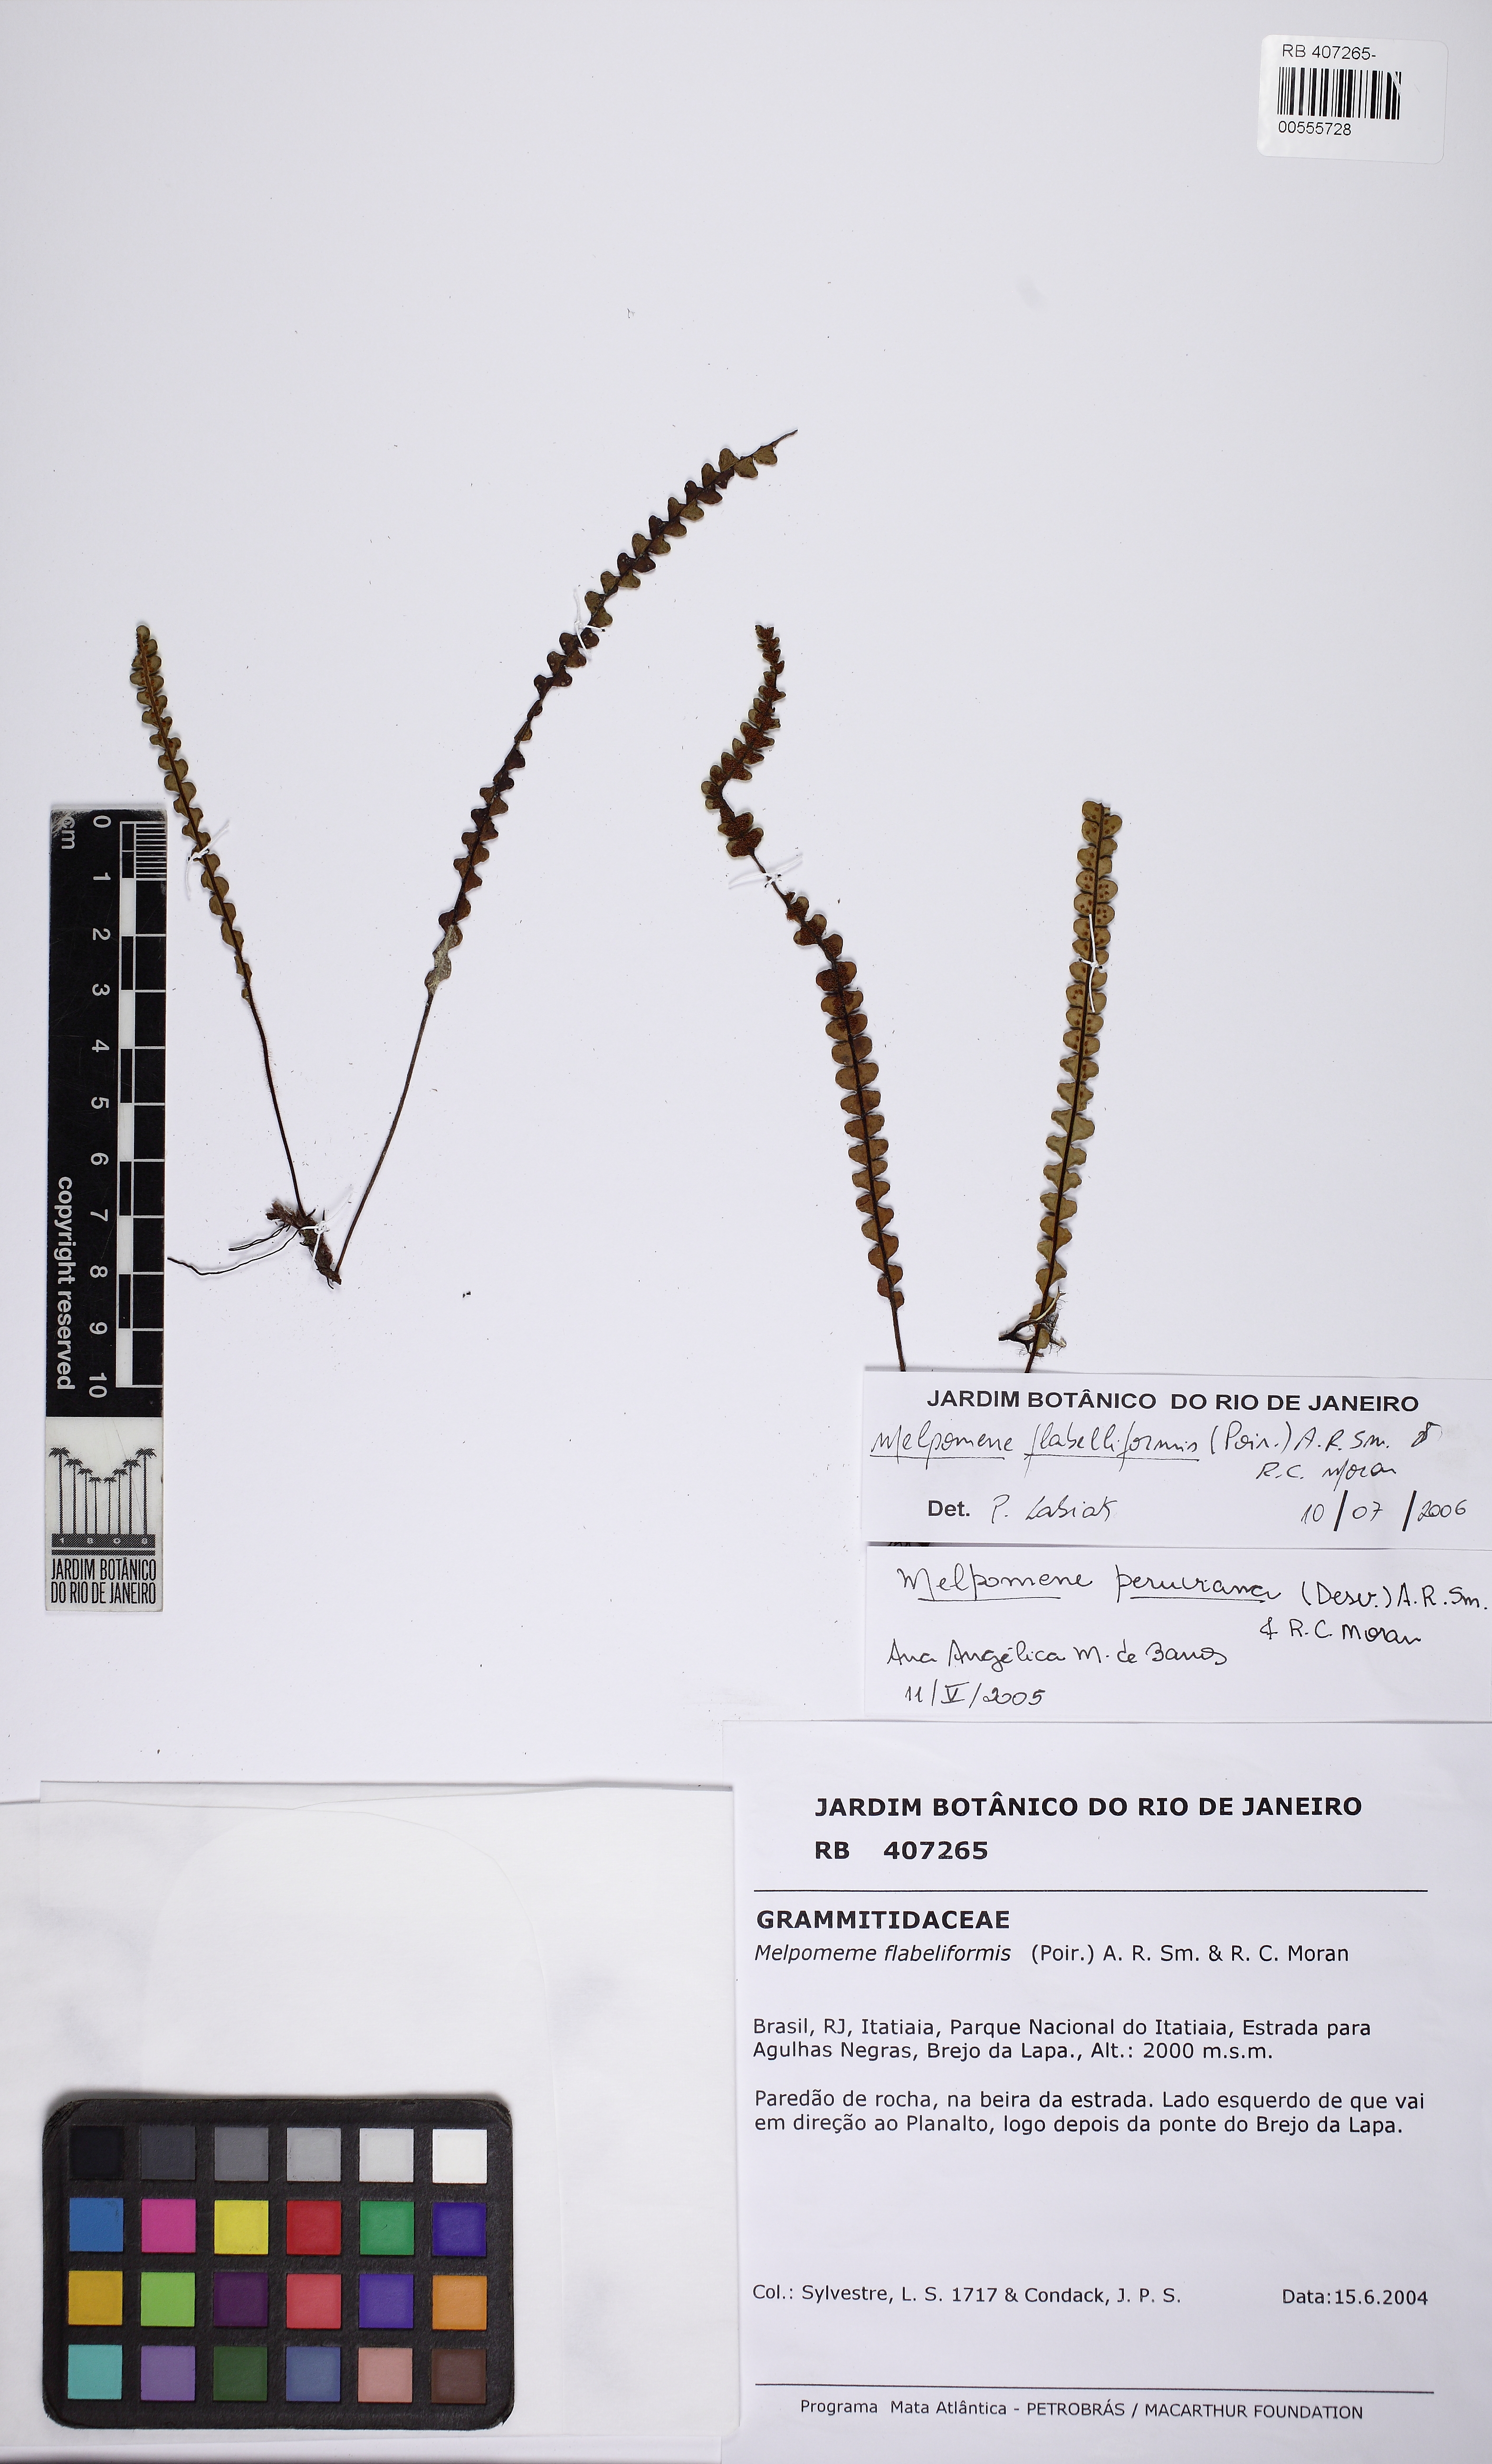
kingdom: Plantae
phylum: Tracheophyta
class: Polypodiopsida
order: Polypodiales
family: Polypodiaceae
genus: Melpomene
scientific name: Melpomene flabelliformis
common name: Fanleaf dwarf polypody
